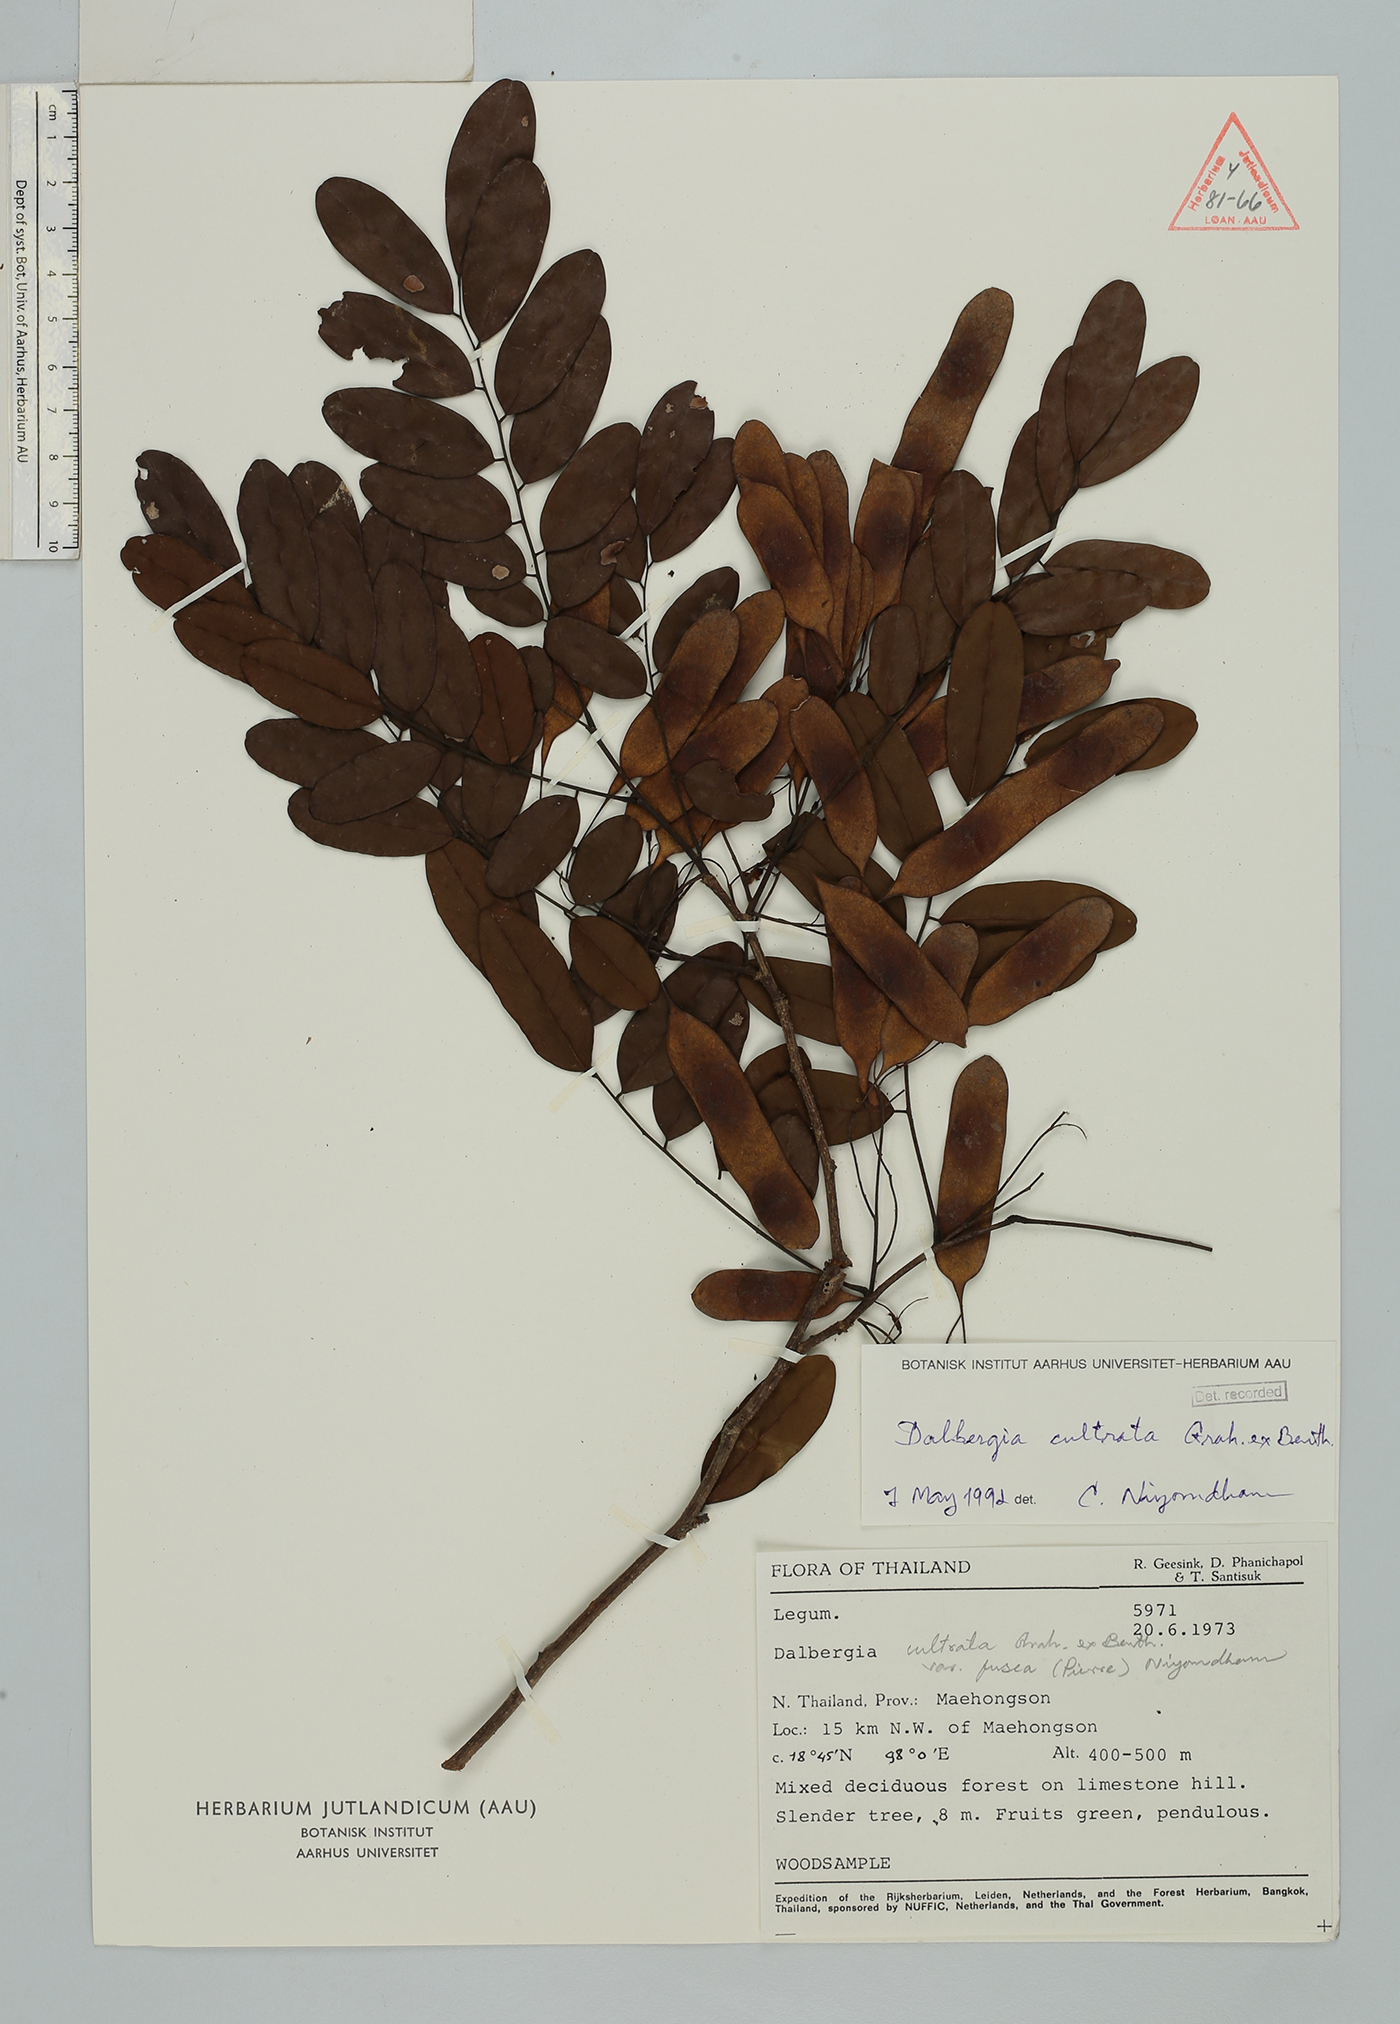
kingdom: Plantae
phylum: Tracheophyta
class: Magnoliopsida
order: Fabales
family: Fabaceae
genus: Dalbergia
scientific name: Dalbergia cultrata
